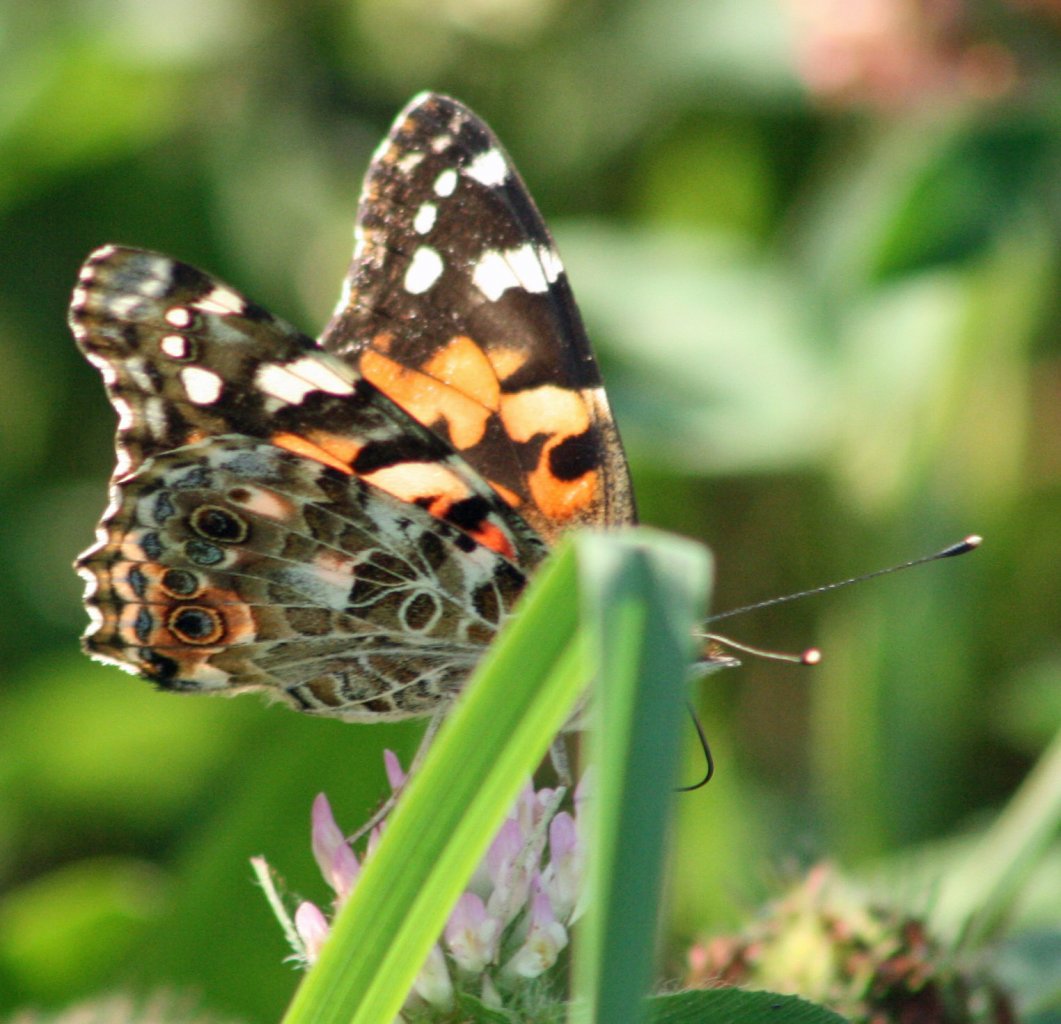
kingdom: Animalia
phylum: Arthropoda
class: Insecta
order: Lepidoptera
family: Nymphalidae
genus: Vanessa
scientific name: Vanessa cardui
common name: Painted Lady
